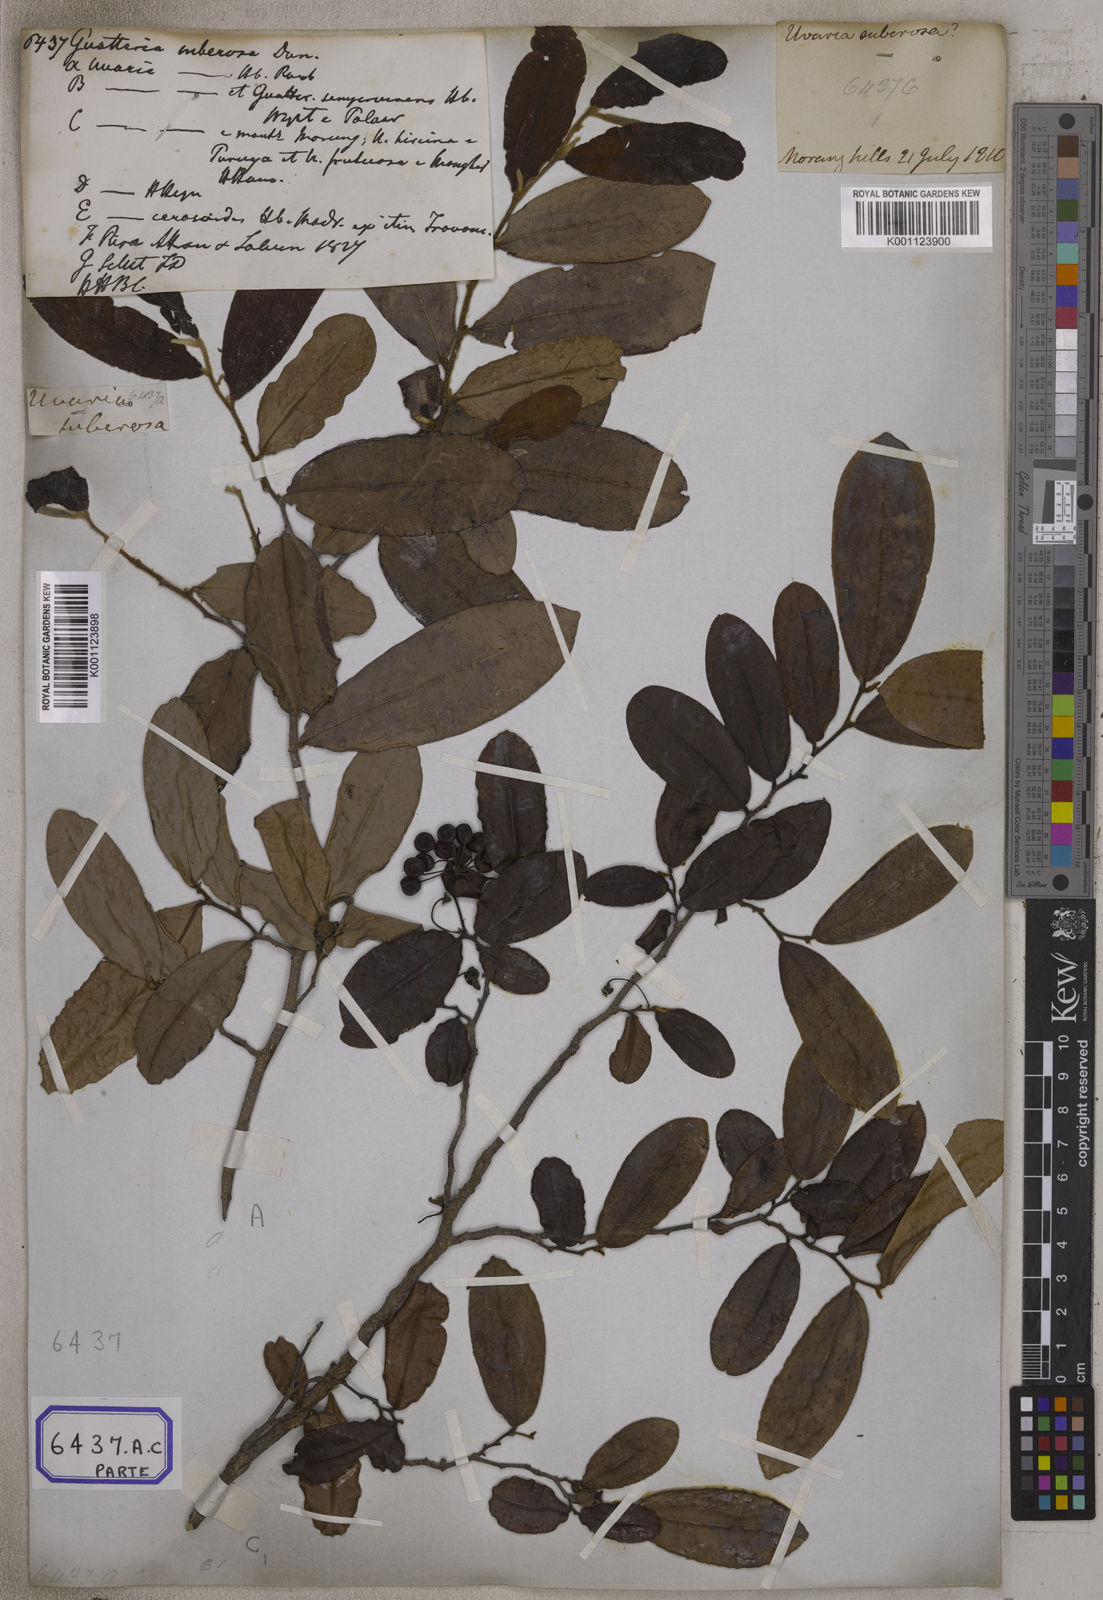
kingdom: Plantae
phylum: Tracheophyta
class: Magnoliopsida
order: Magnoliales
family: Annonaceae
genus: Polyalthia
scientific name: Polyalthia suberosa
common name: Polyalthia plant
